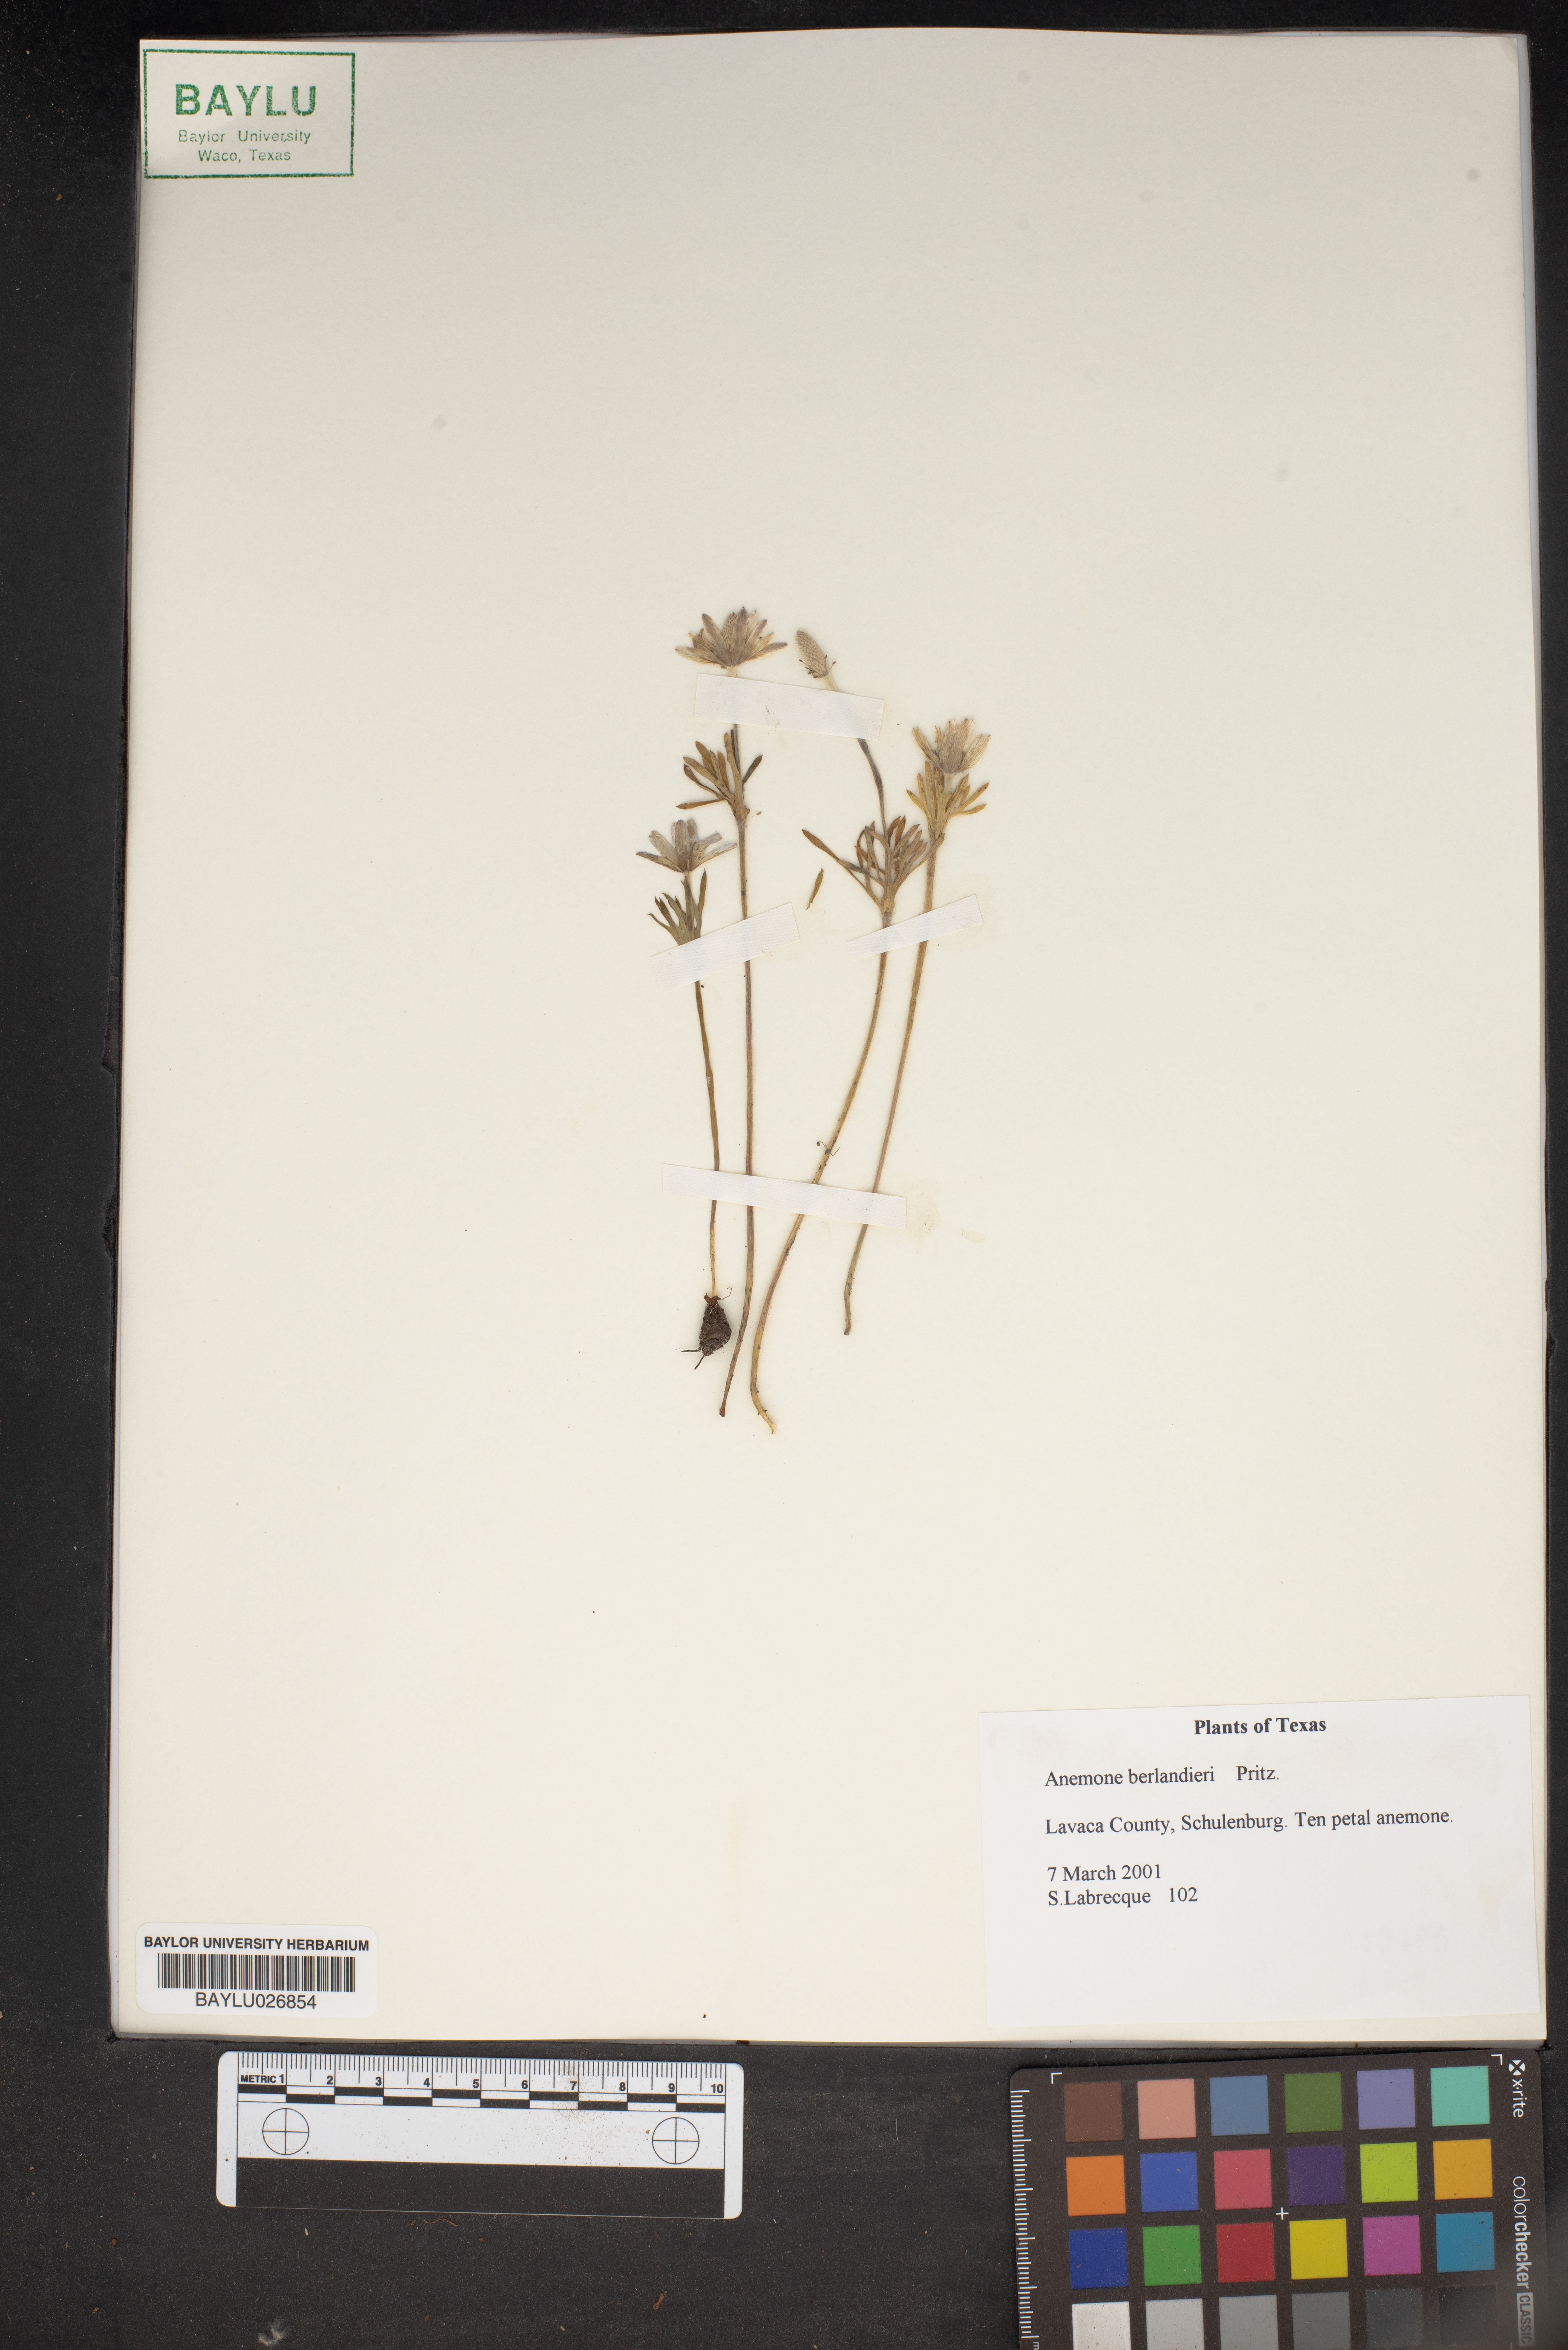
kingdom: Plantae
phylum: Tracheophyta
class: Magnoliopsida
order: Ranunculales
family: Ranunculaceae
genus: Anemone
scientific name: Anemone berlandieri
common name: Ten-petal anemone
